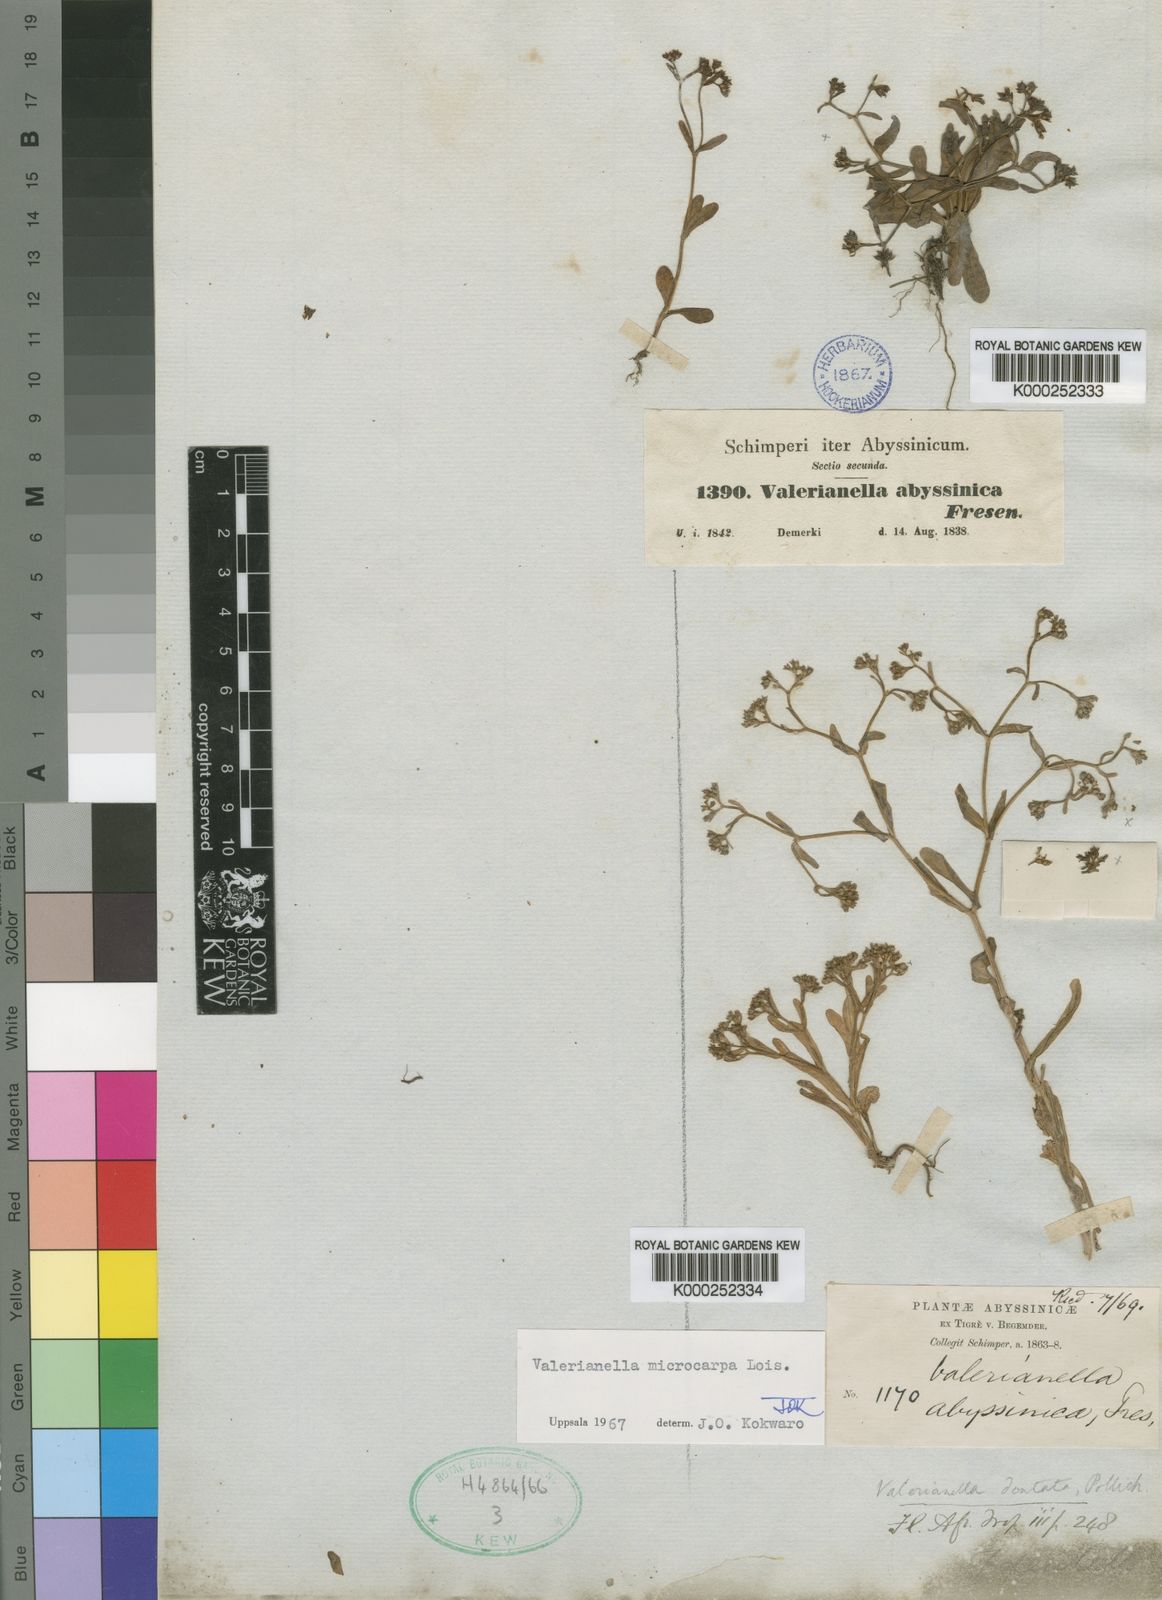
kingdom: Plantae
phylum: Tracheophyta
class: Magnoliopsida
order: Dipsacales
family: Caprifoliaceae
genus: Valerianella
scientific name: Valerianella microcarpa
